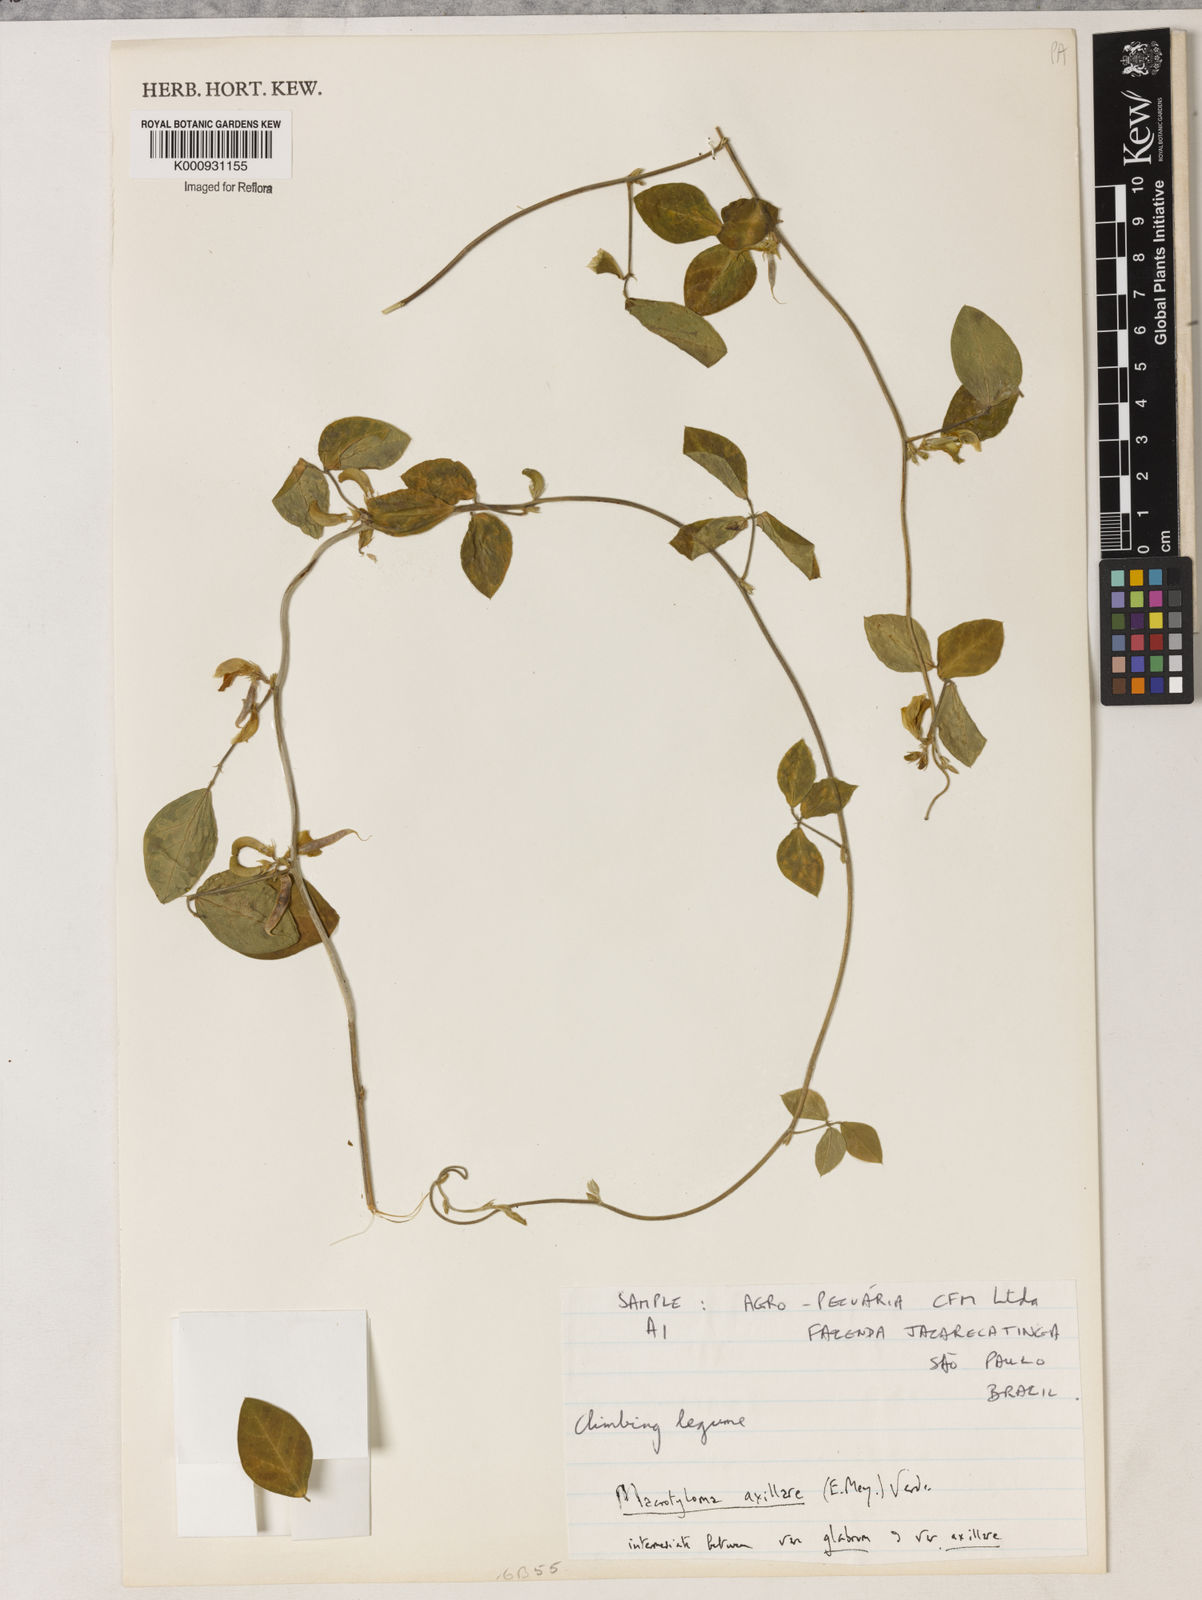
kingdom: Plantae
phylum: Tracheophyta
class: Magnoliopsida
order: Fabales
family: Fabaceae
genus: Macrotyloma
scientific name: Macrotyloma
